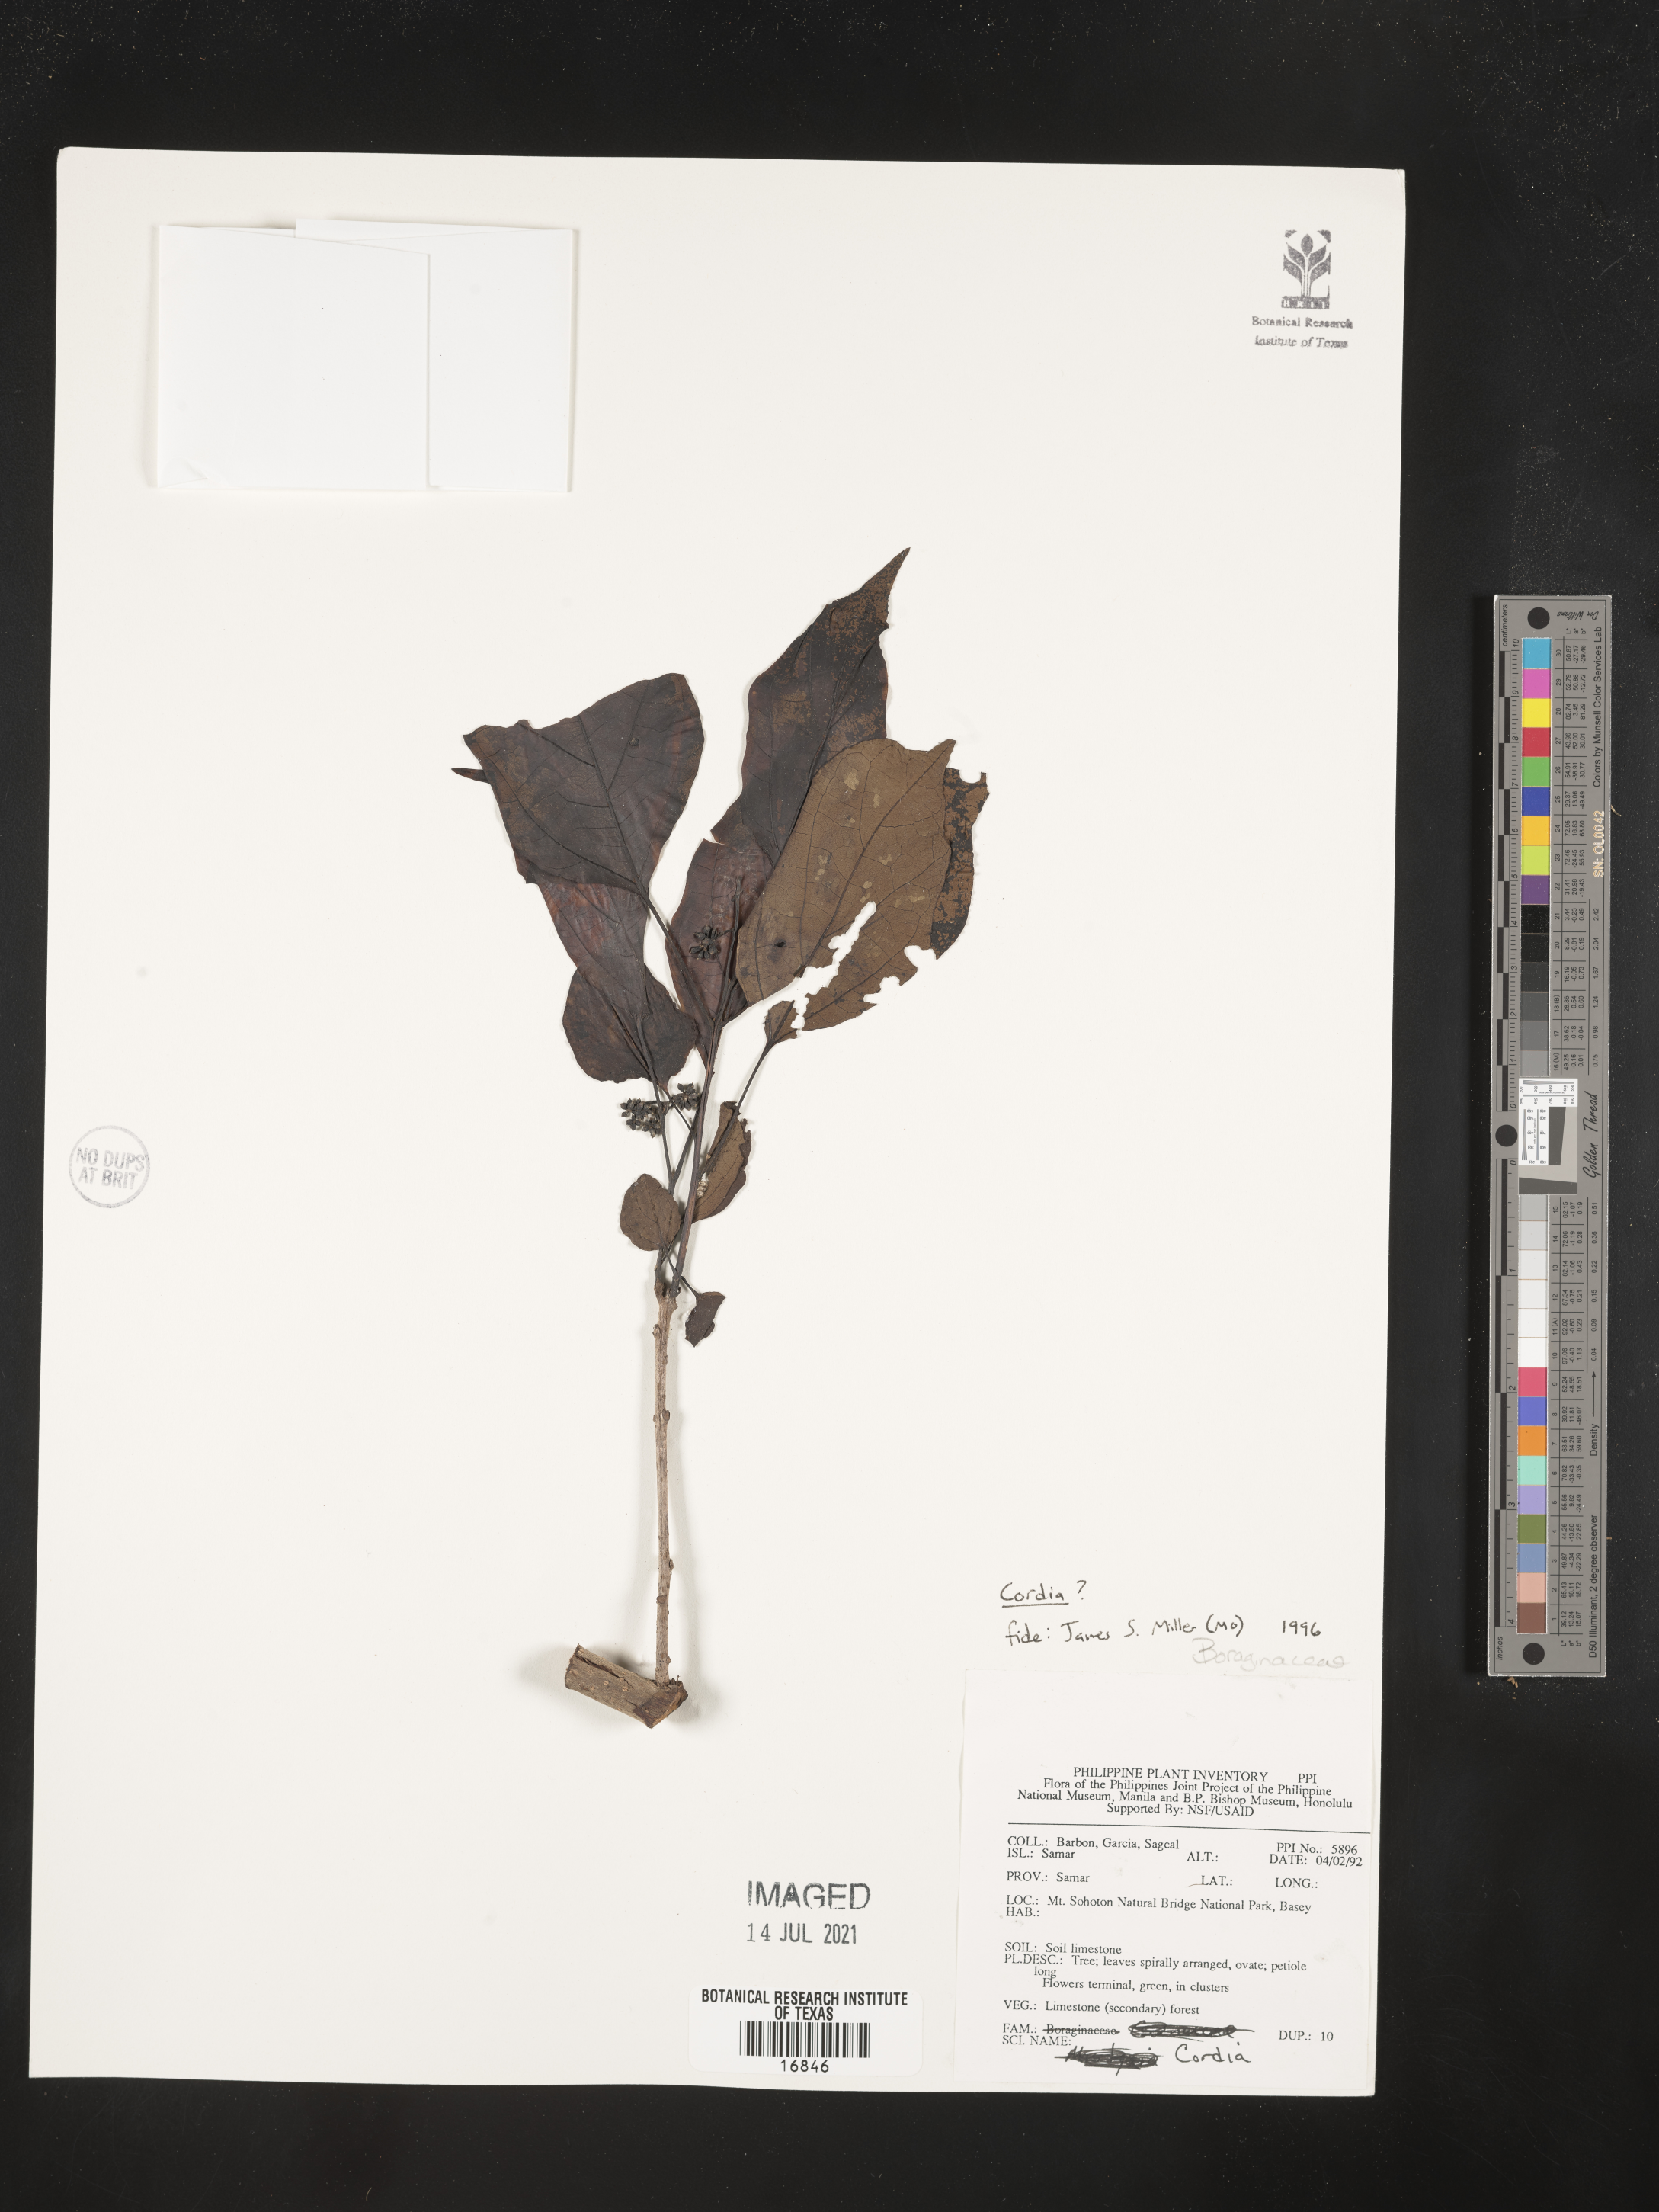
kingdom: Plantae
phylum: Tracheophyta
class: Magnoliopsida
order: Boraginales
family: Cordiaceae
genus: Cordia
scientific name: Cordia
